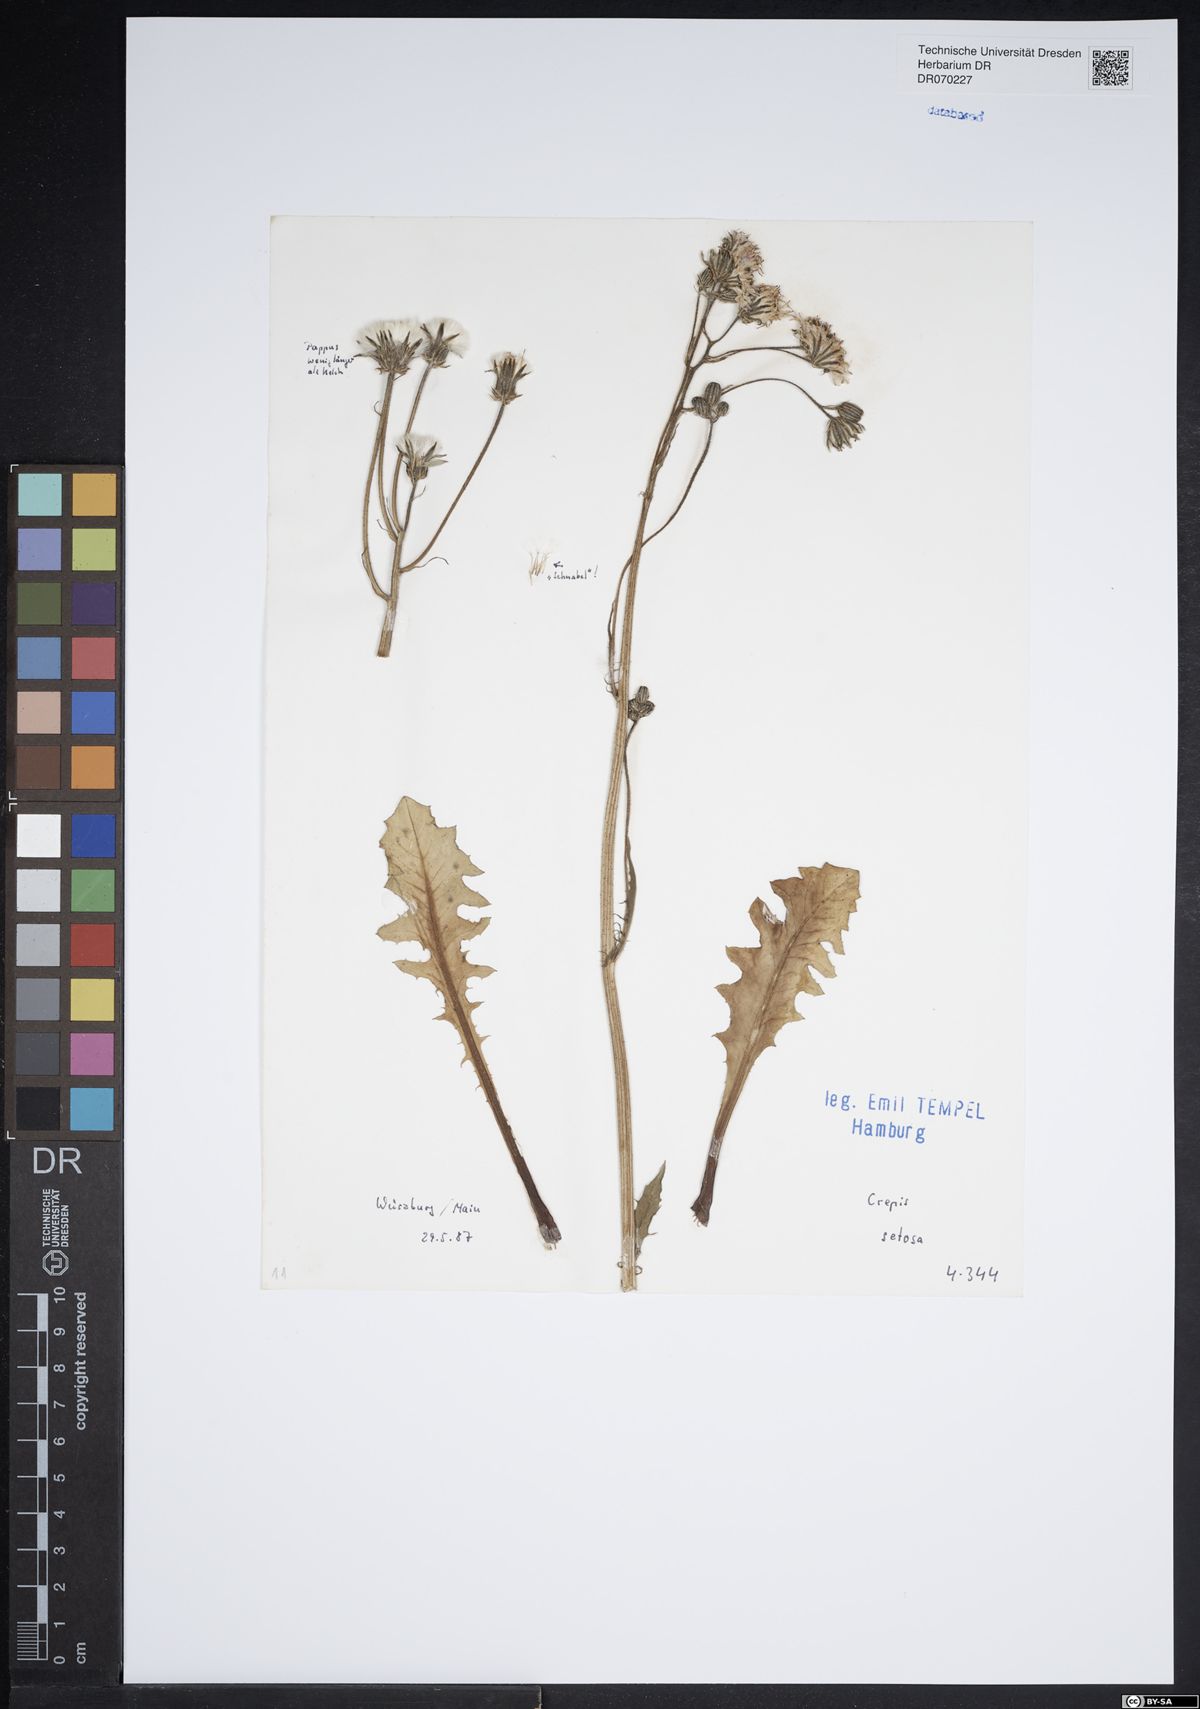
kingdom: Plantae
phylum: Tracheophyta
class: Magnoliopsida
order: Asterales
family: Asteraceae
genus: Crepis
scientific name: Crepis setosa
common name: Bristly hawk's-beard
